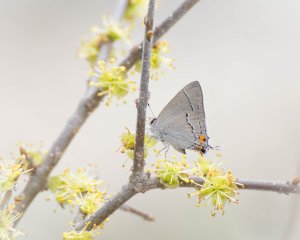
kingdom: Animalia
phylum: Arthropoda
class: Insecta
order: Lepidoptera
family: Lycaenidae
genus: Strymon
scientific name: Strymon melinus
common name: Gray Hairstreak
